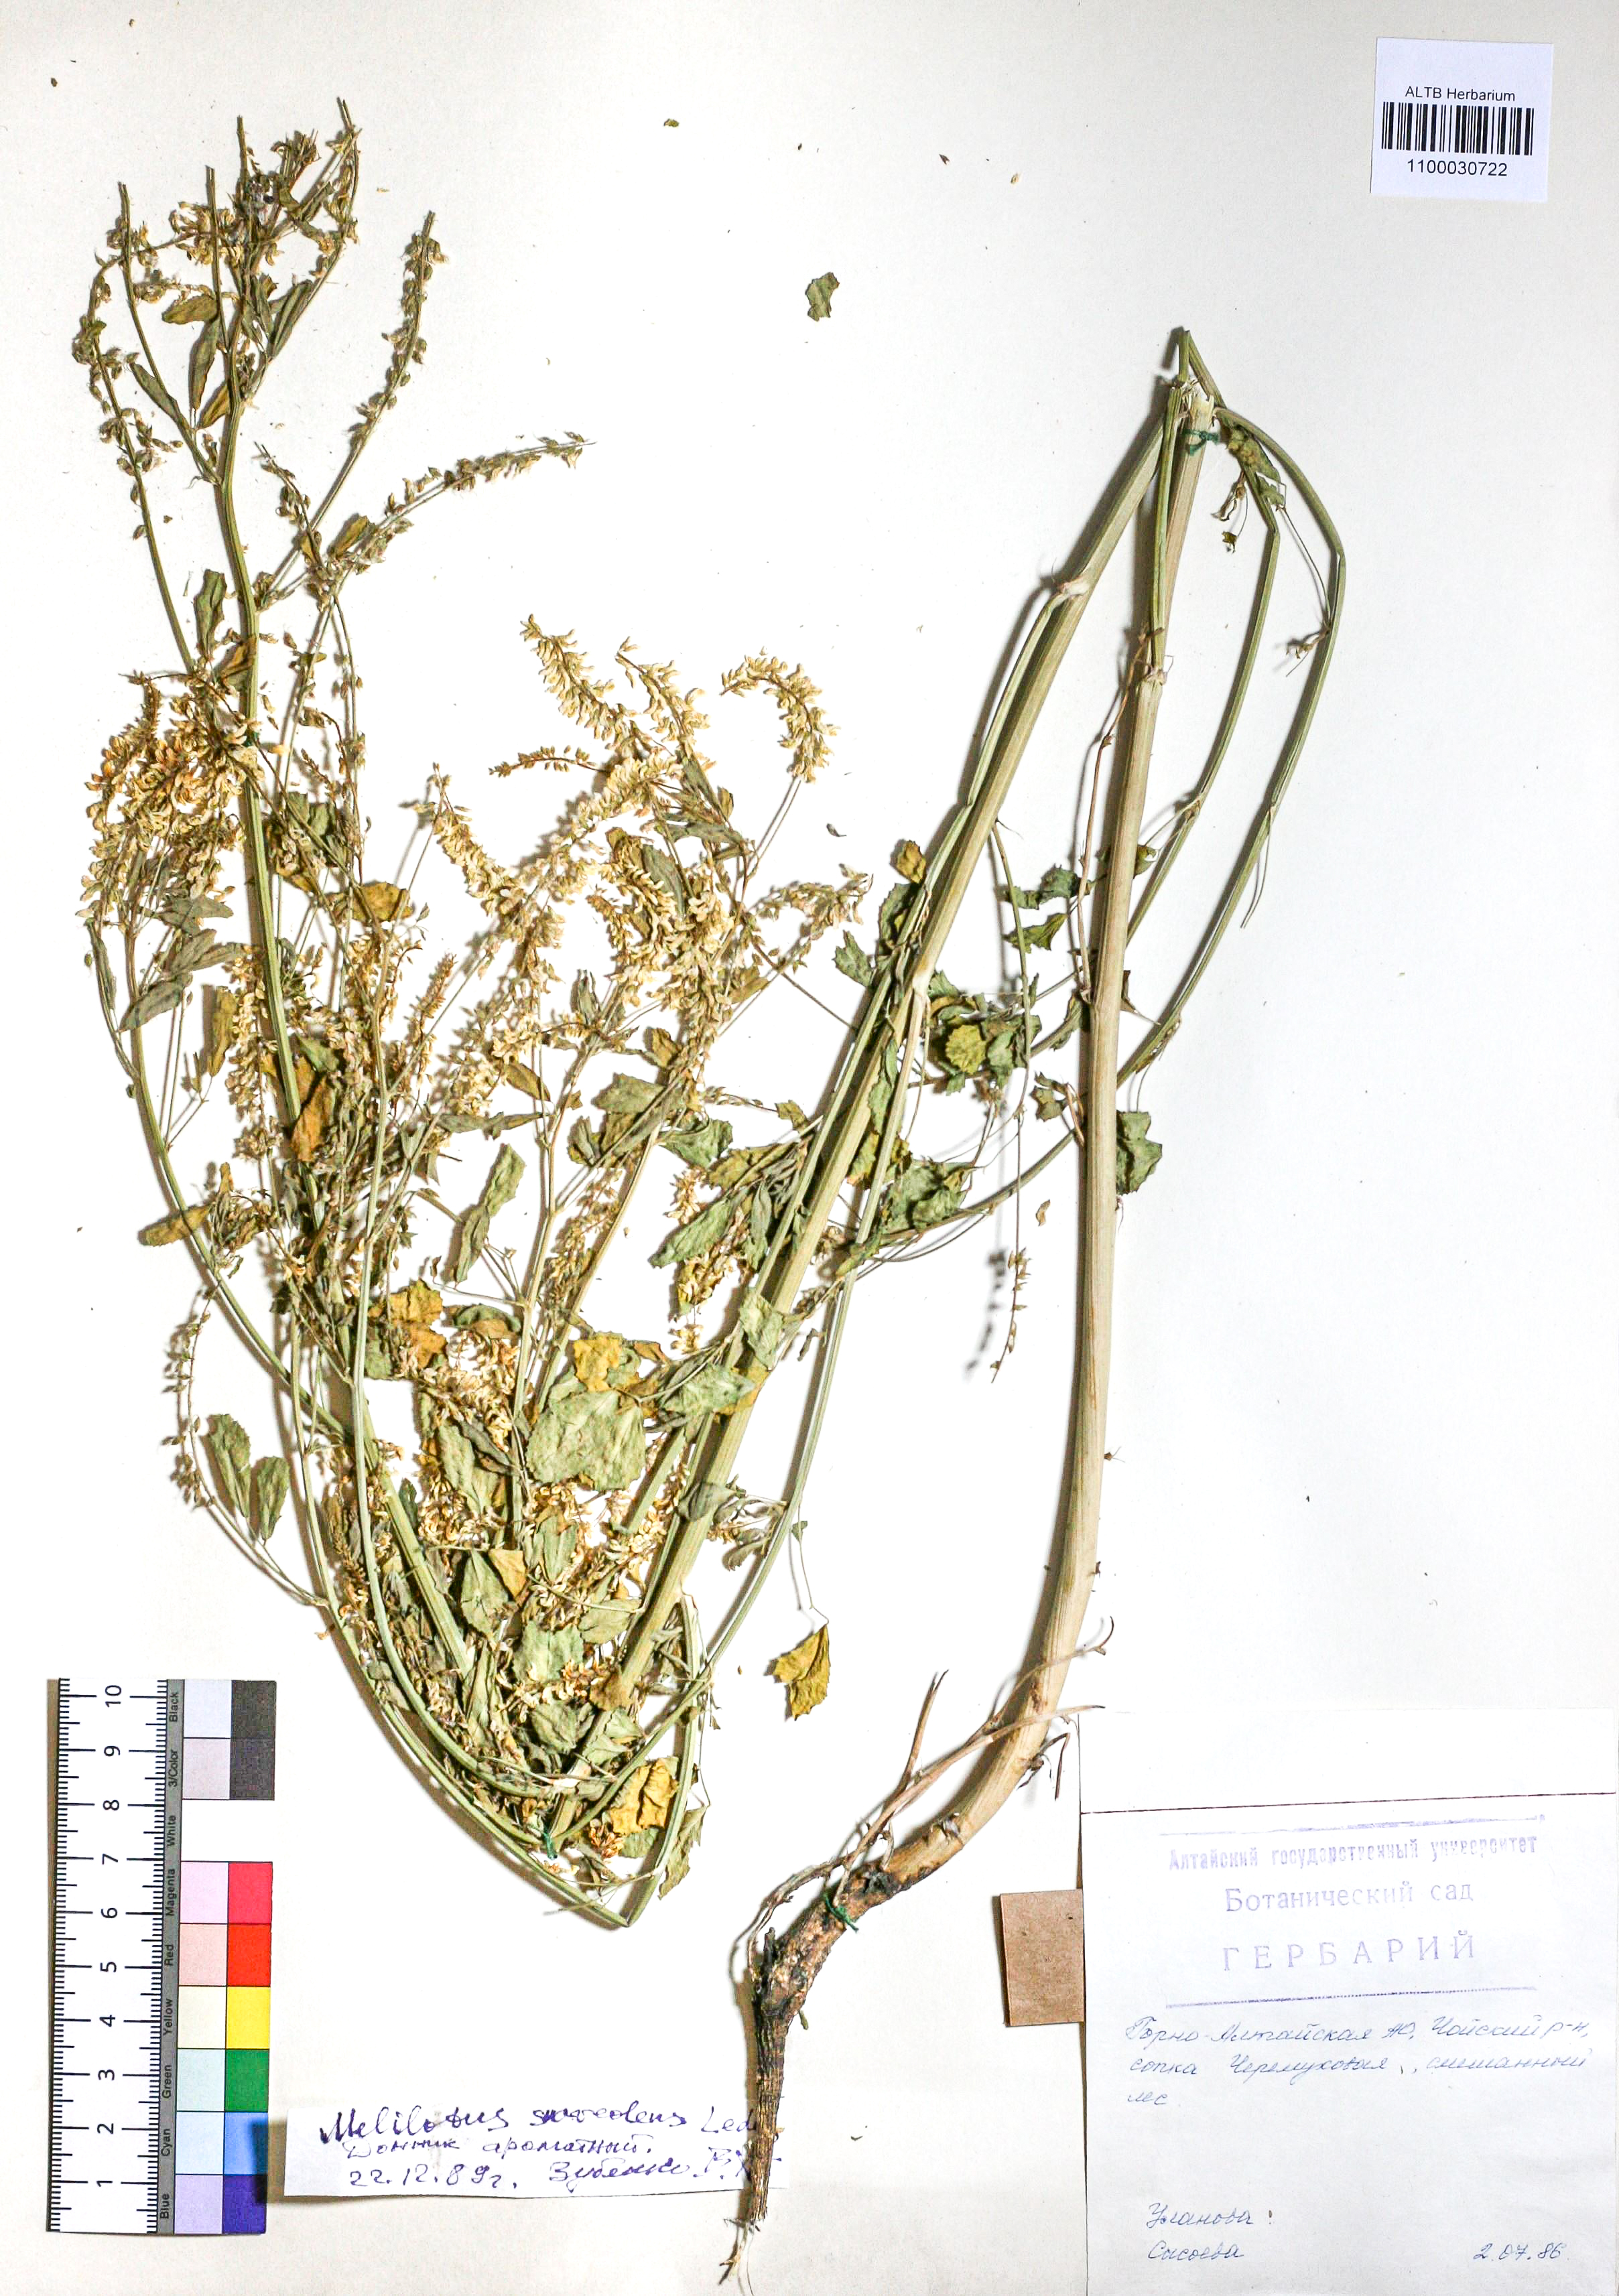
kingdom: Plantae
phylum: Tracheophyta
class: Magnoliopsida
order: Fabales
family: Fabaceae
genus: Melilotus
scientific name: Melilotus suaveolens
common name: Daghestan sweet-clover
